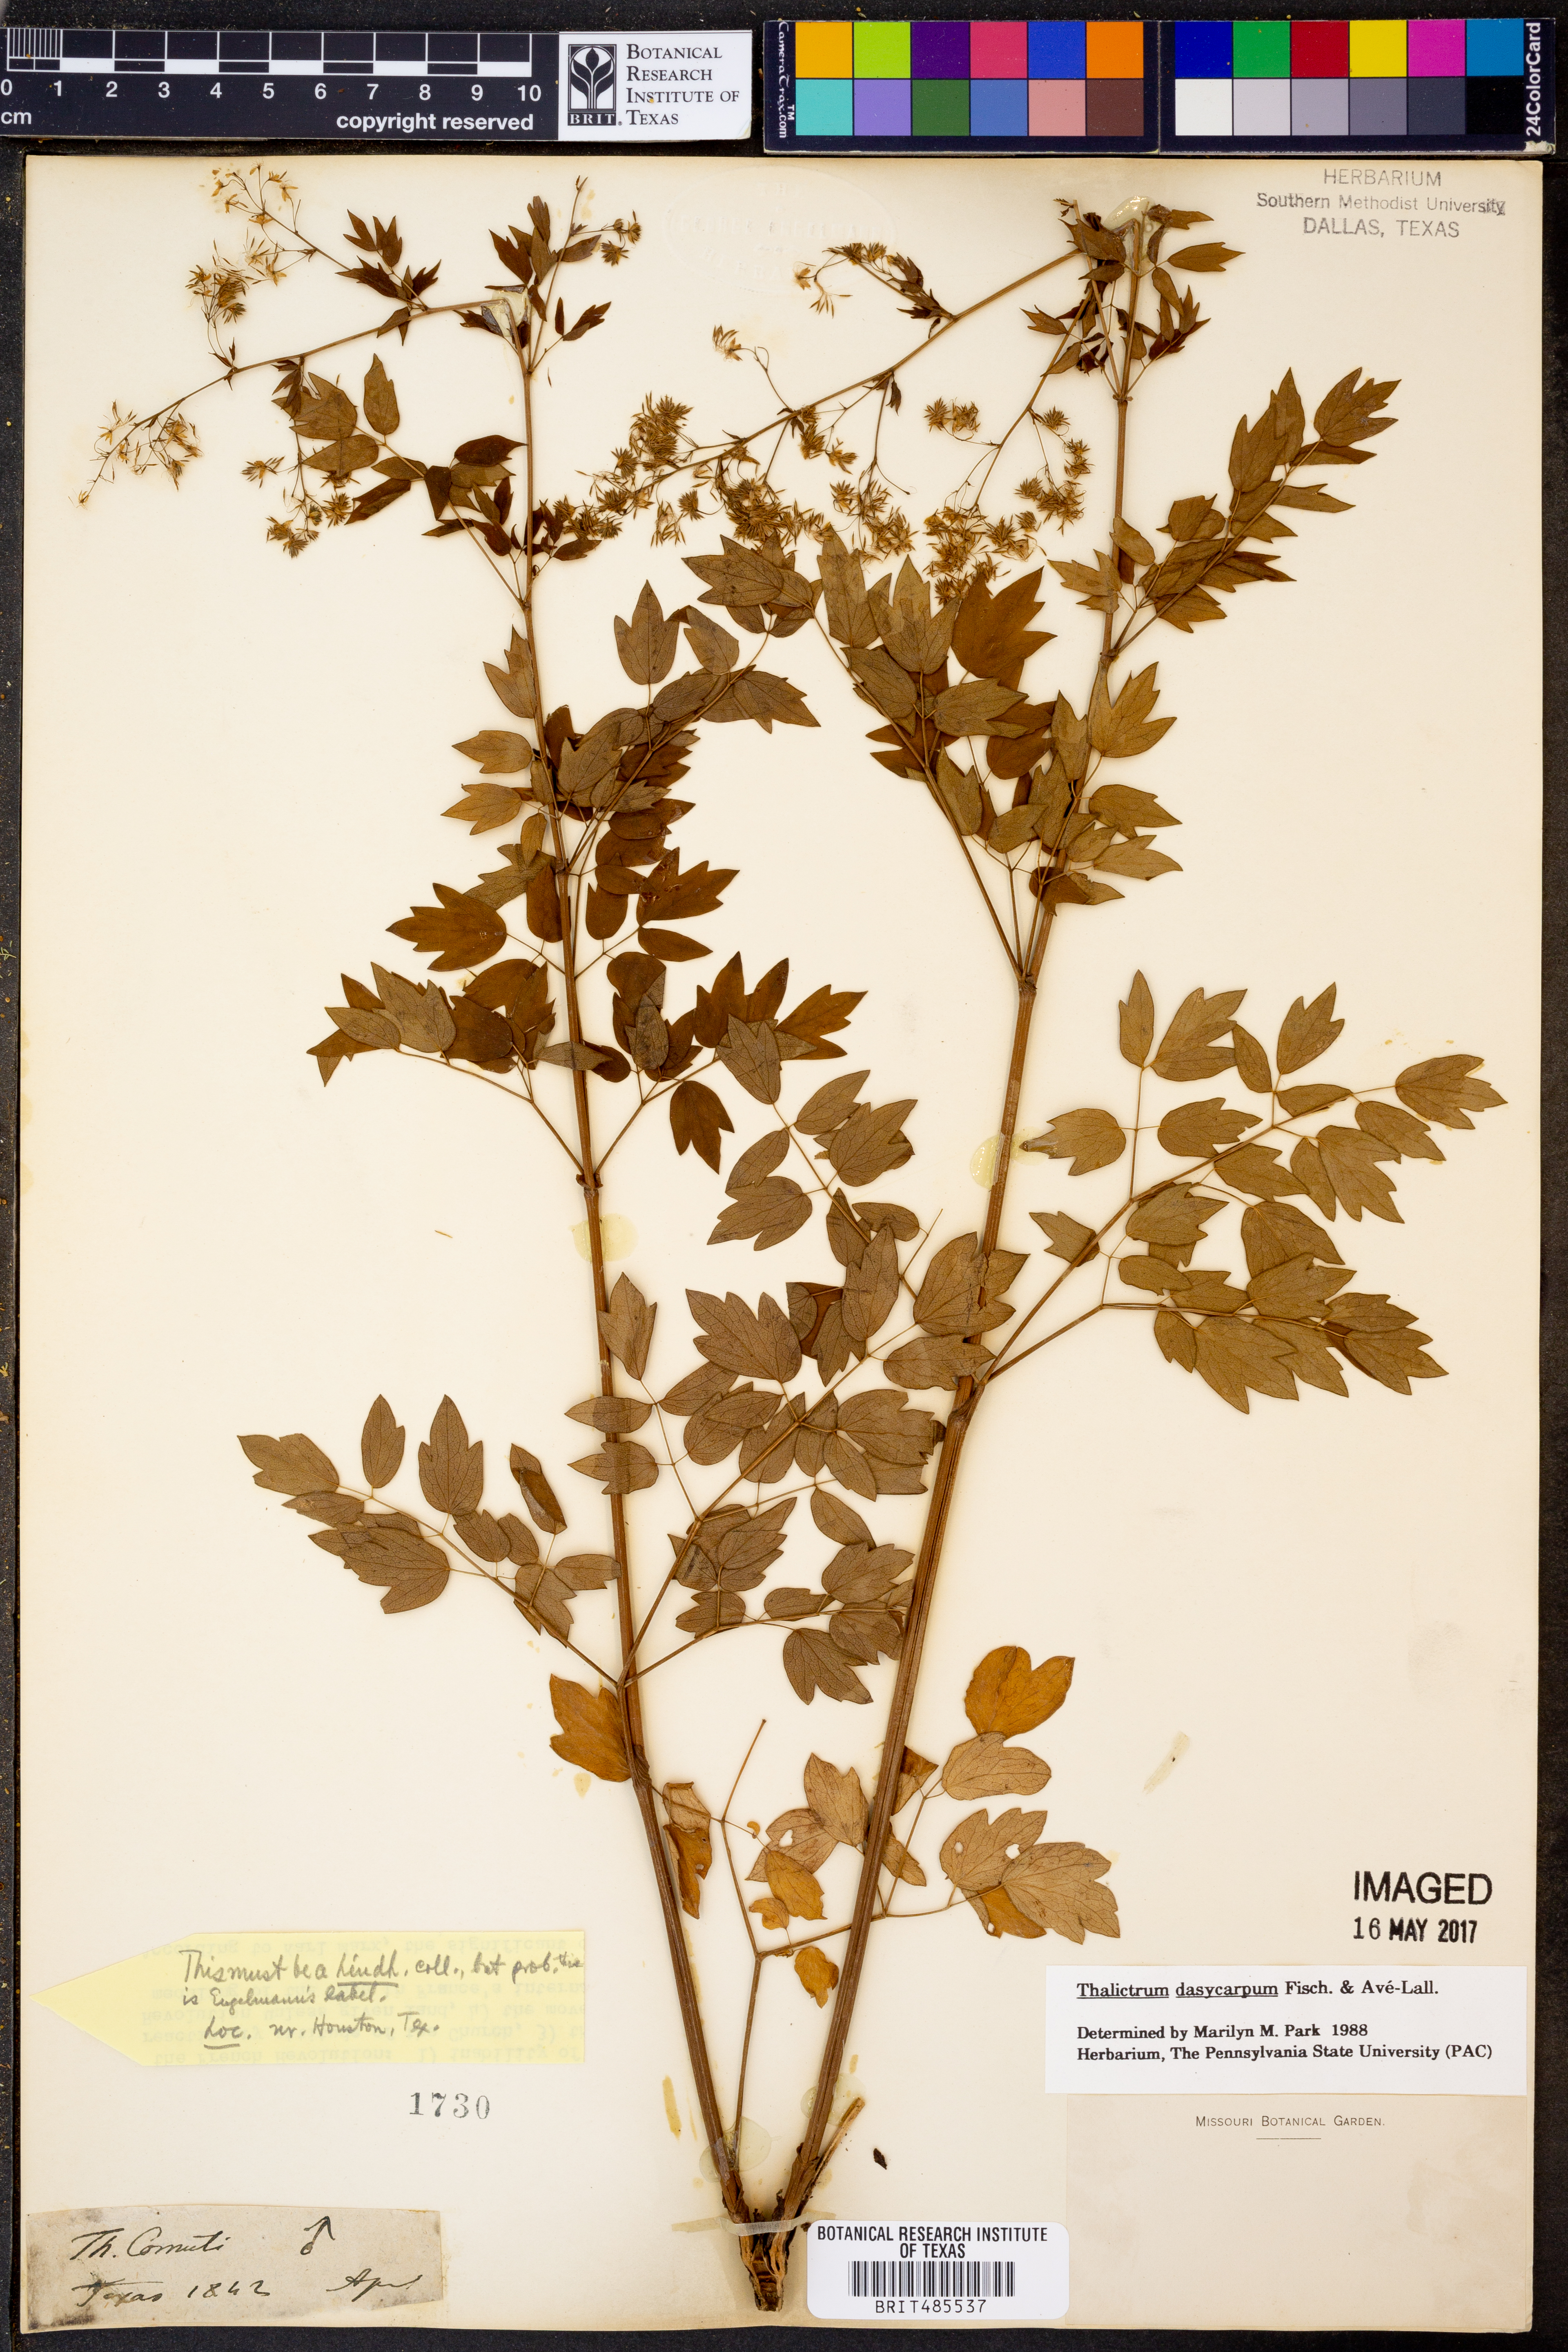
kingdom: Plantae
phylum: Tracheophyta
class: Magnoliopsida
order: Ranunculales
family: Ranunculaceae
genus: Thalictrum
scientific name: Thalictrum dasycarpum
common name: Purple meadow-rue
